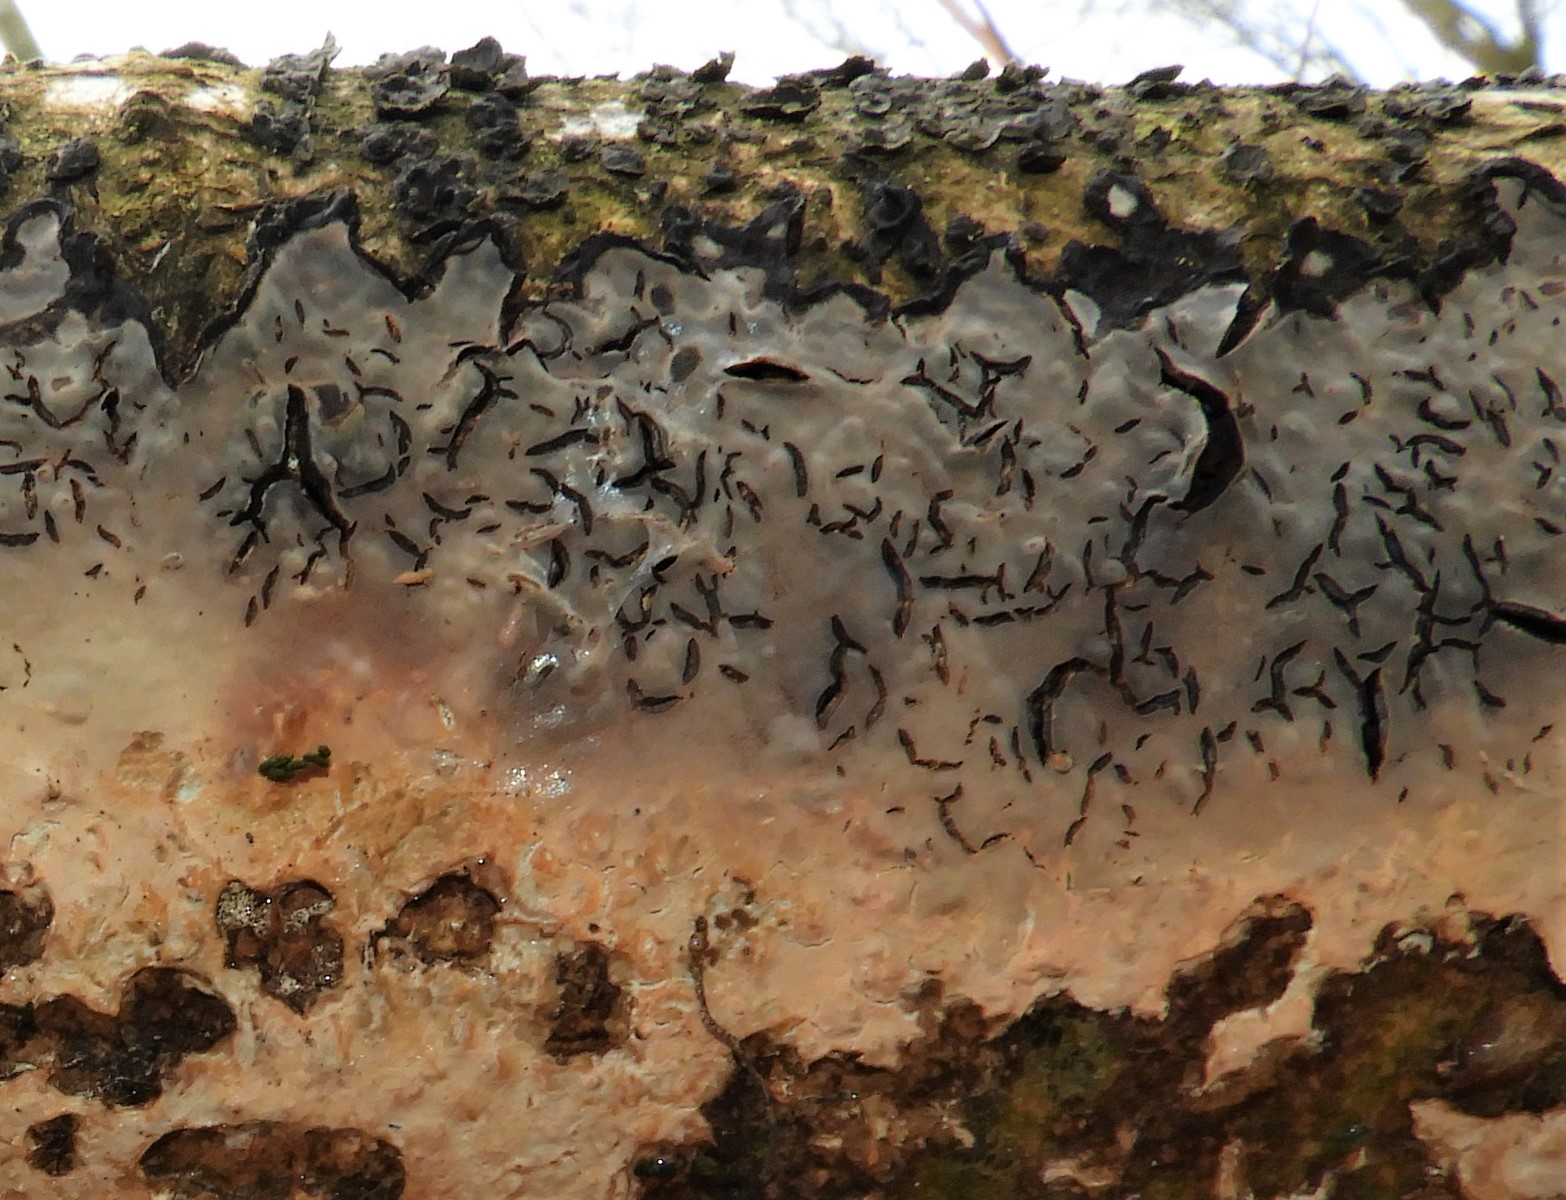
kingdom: Fungi
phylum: Basidiomycota
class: Agaricomycetes
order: Russulales
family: Peniophoraceae
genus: Peniophora
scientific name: Peniophora limitata
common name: mørkrandet voksskind
